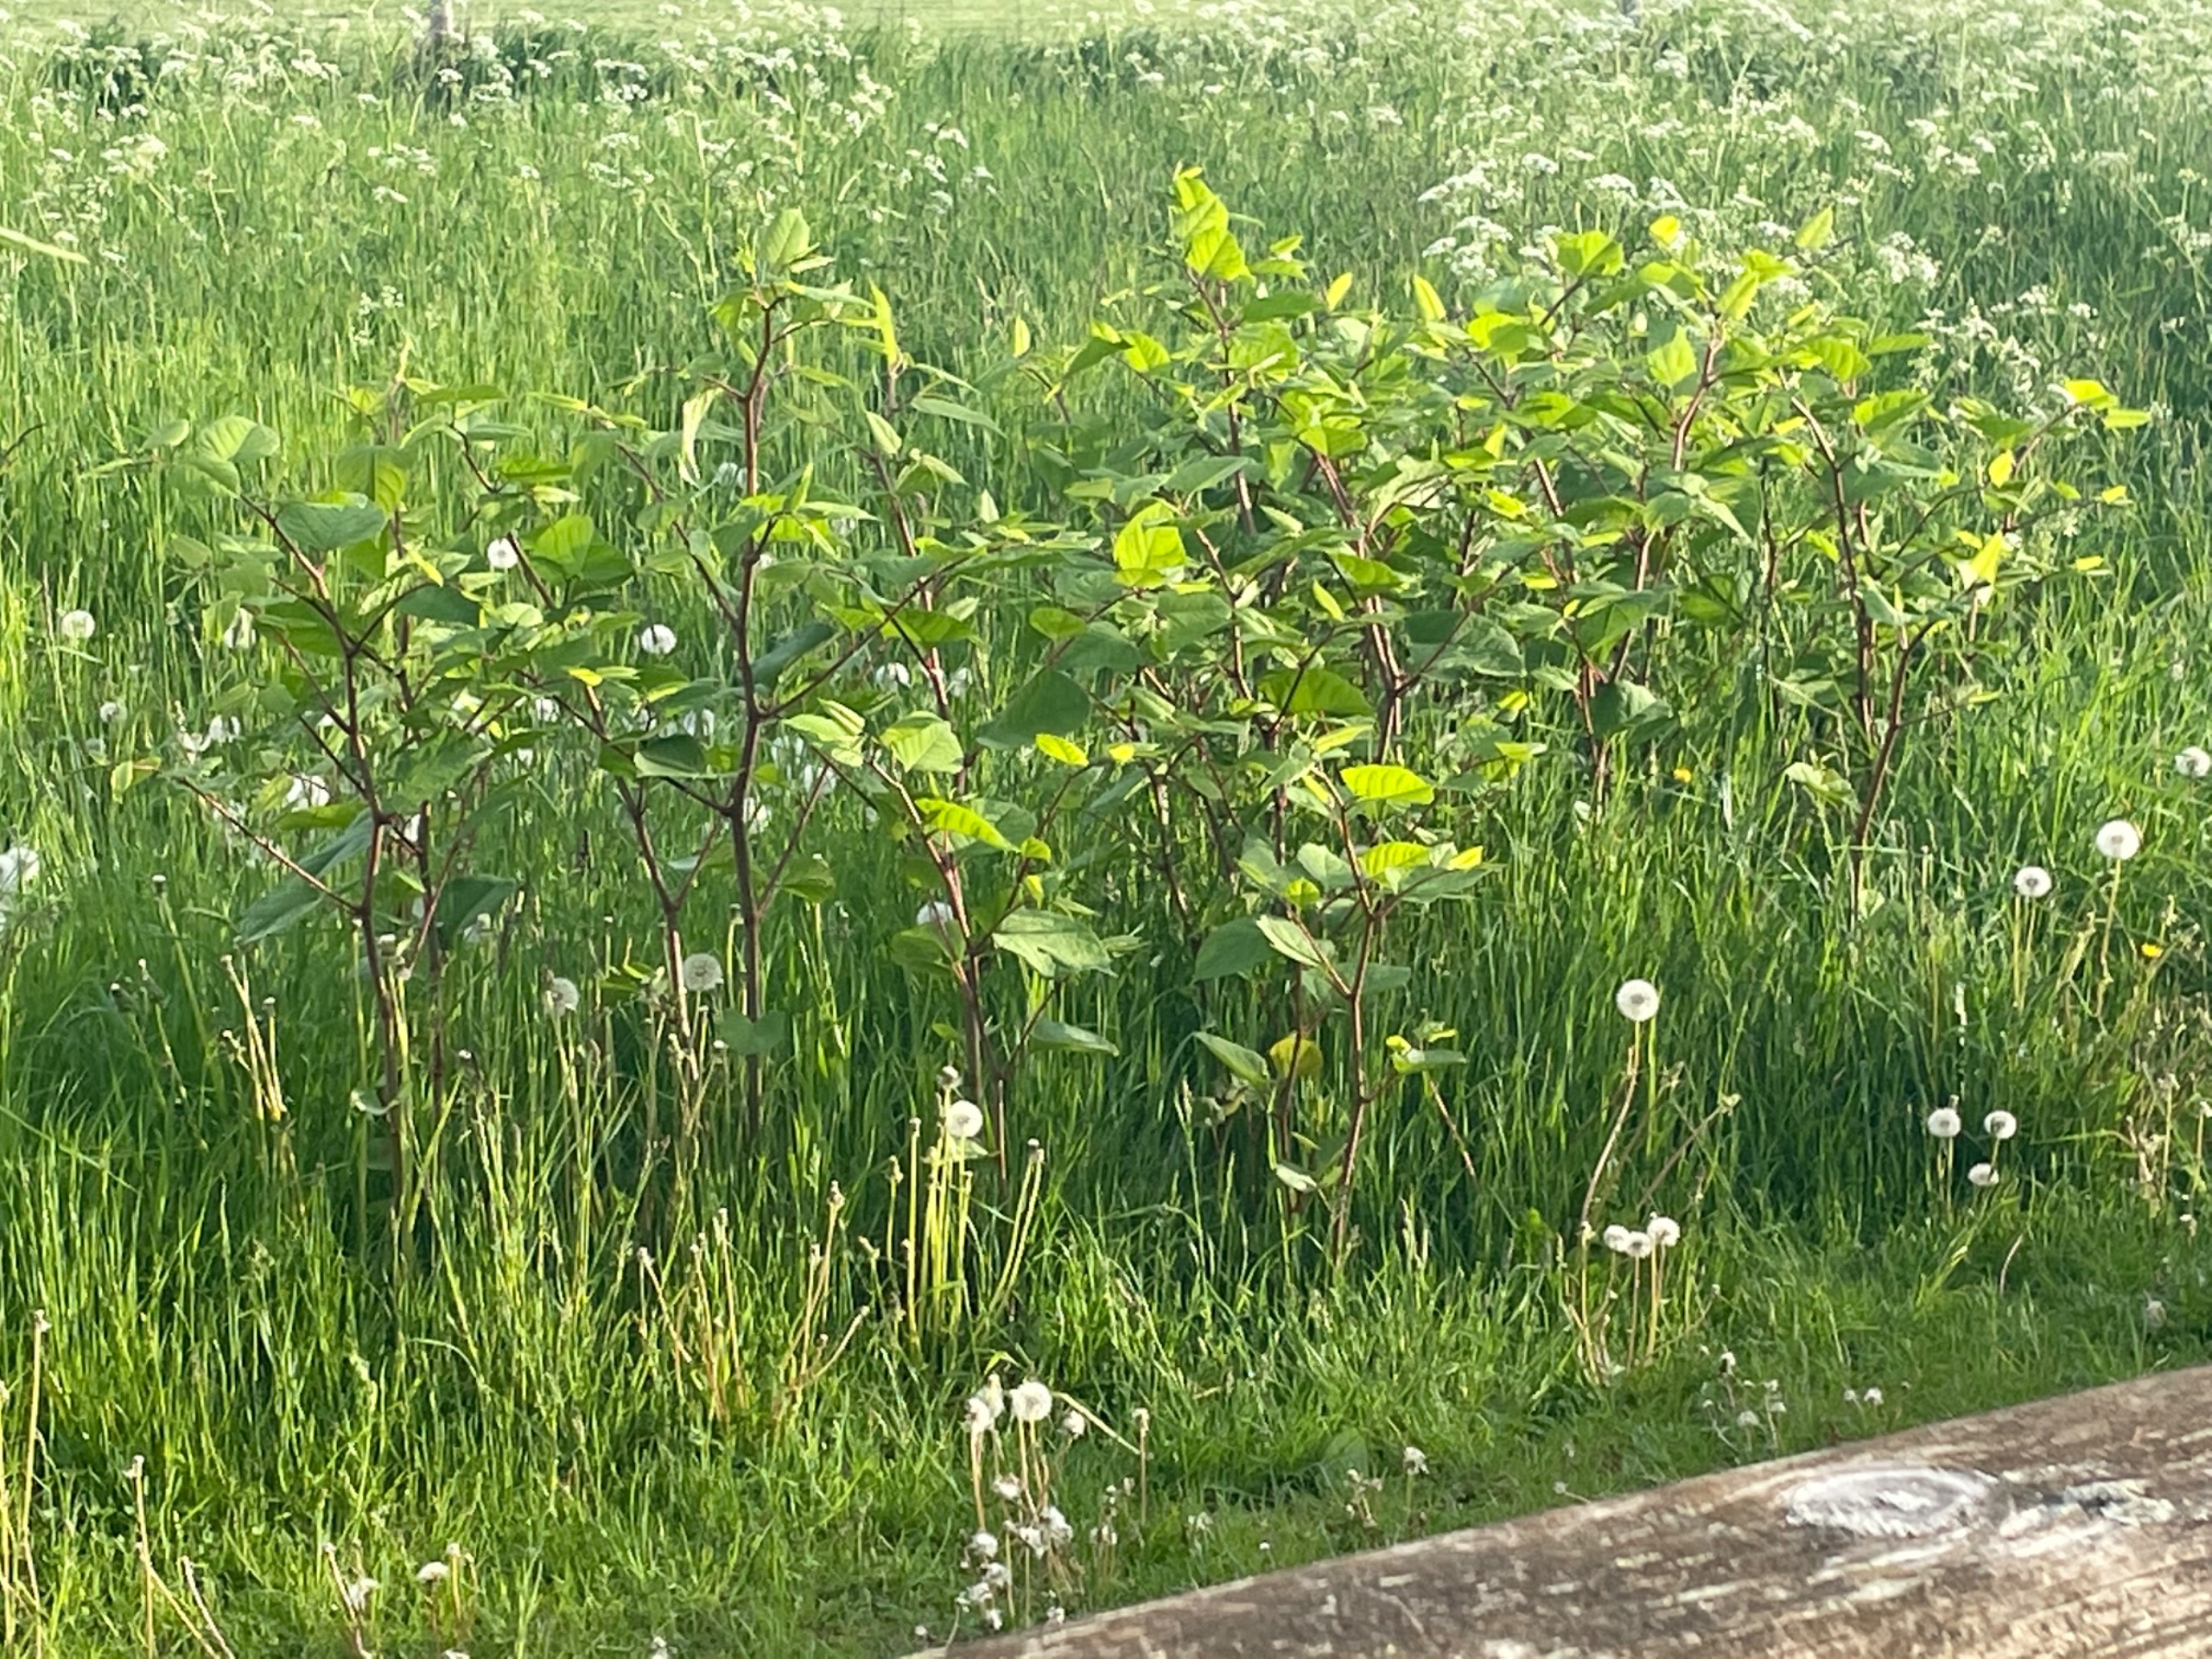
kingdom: Plantae
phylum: Tracheophyta
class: Magnoliopsida
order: Caryophyllales
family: Polygonaceae
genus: Reynoutria
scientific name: Reynoutria
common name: Pileurt (Reynoutria-slægten)
